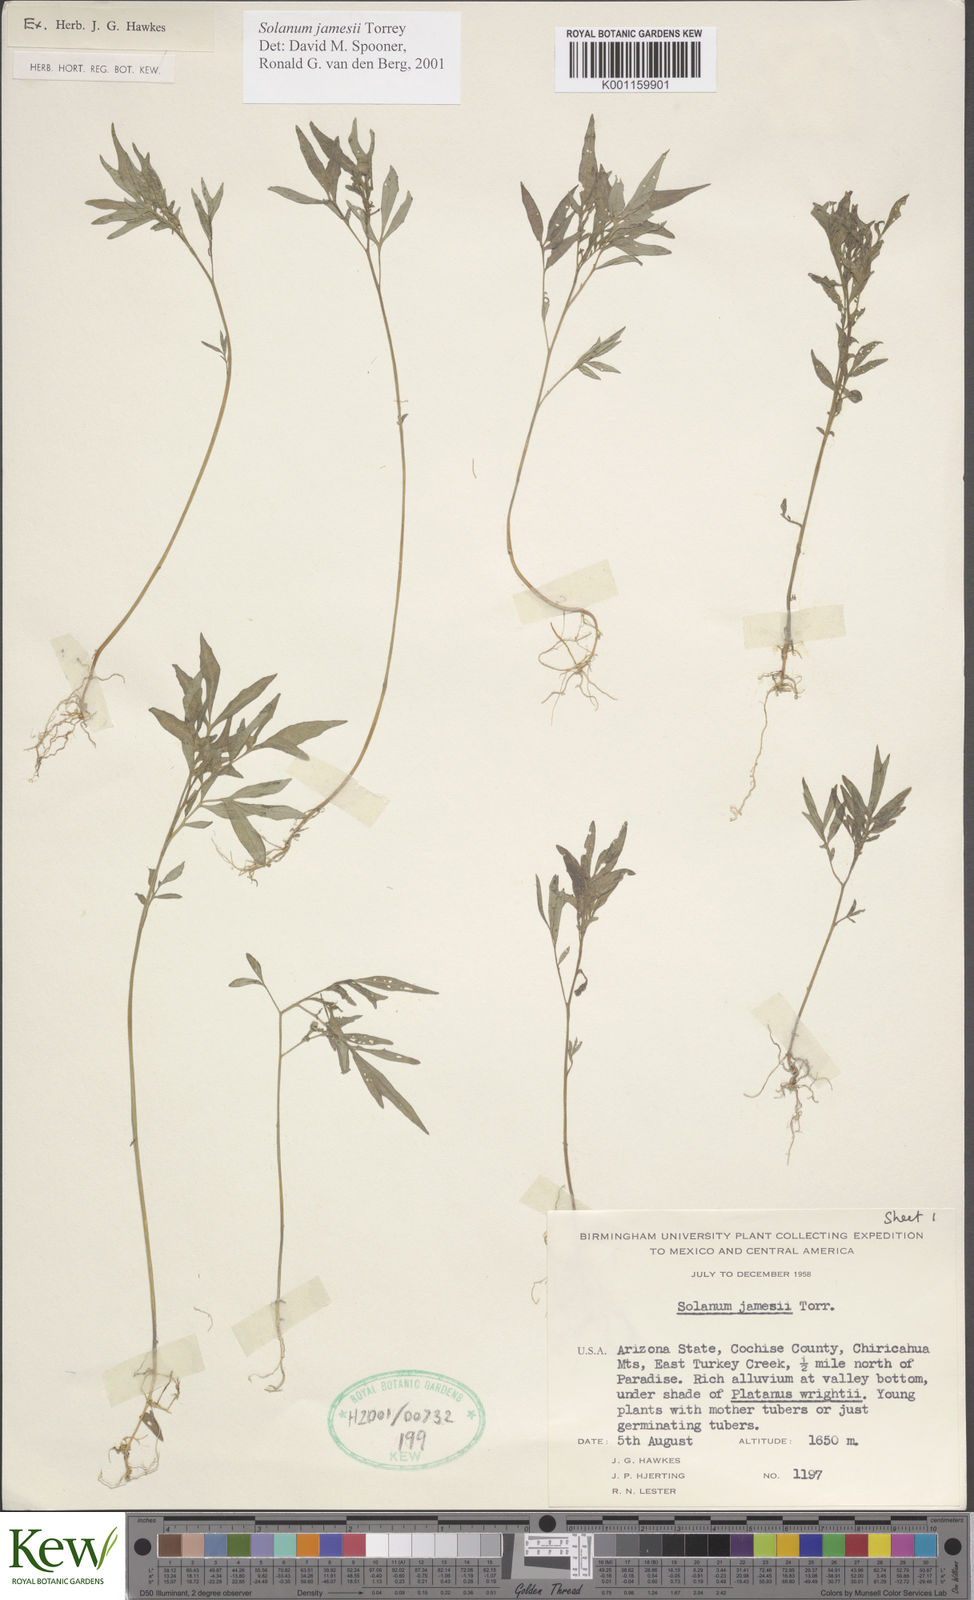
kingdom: Plantae
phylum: Tracheophyta
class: Magnoliopsida
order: Solanales
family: Solanaceae
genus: Solanum
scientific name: Solanum jamesii
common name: Wild potato
